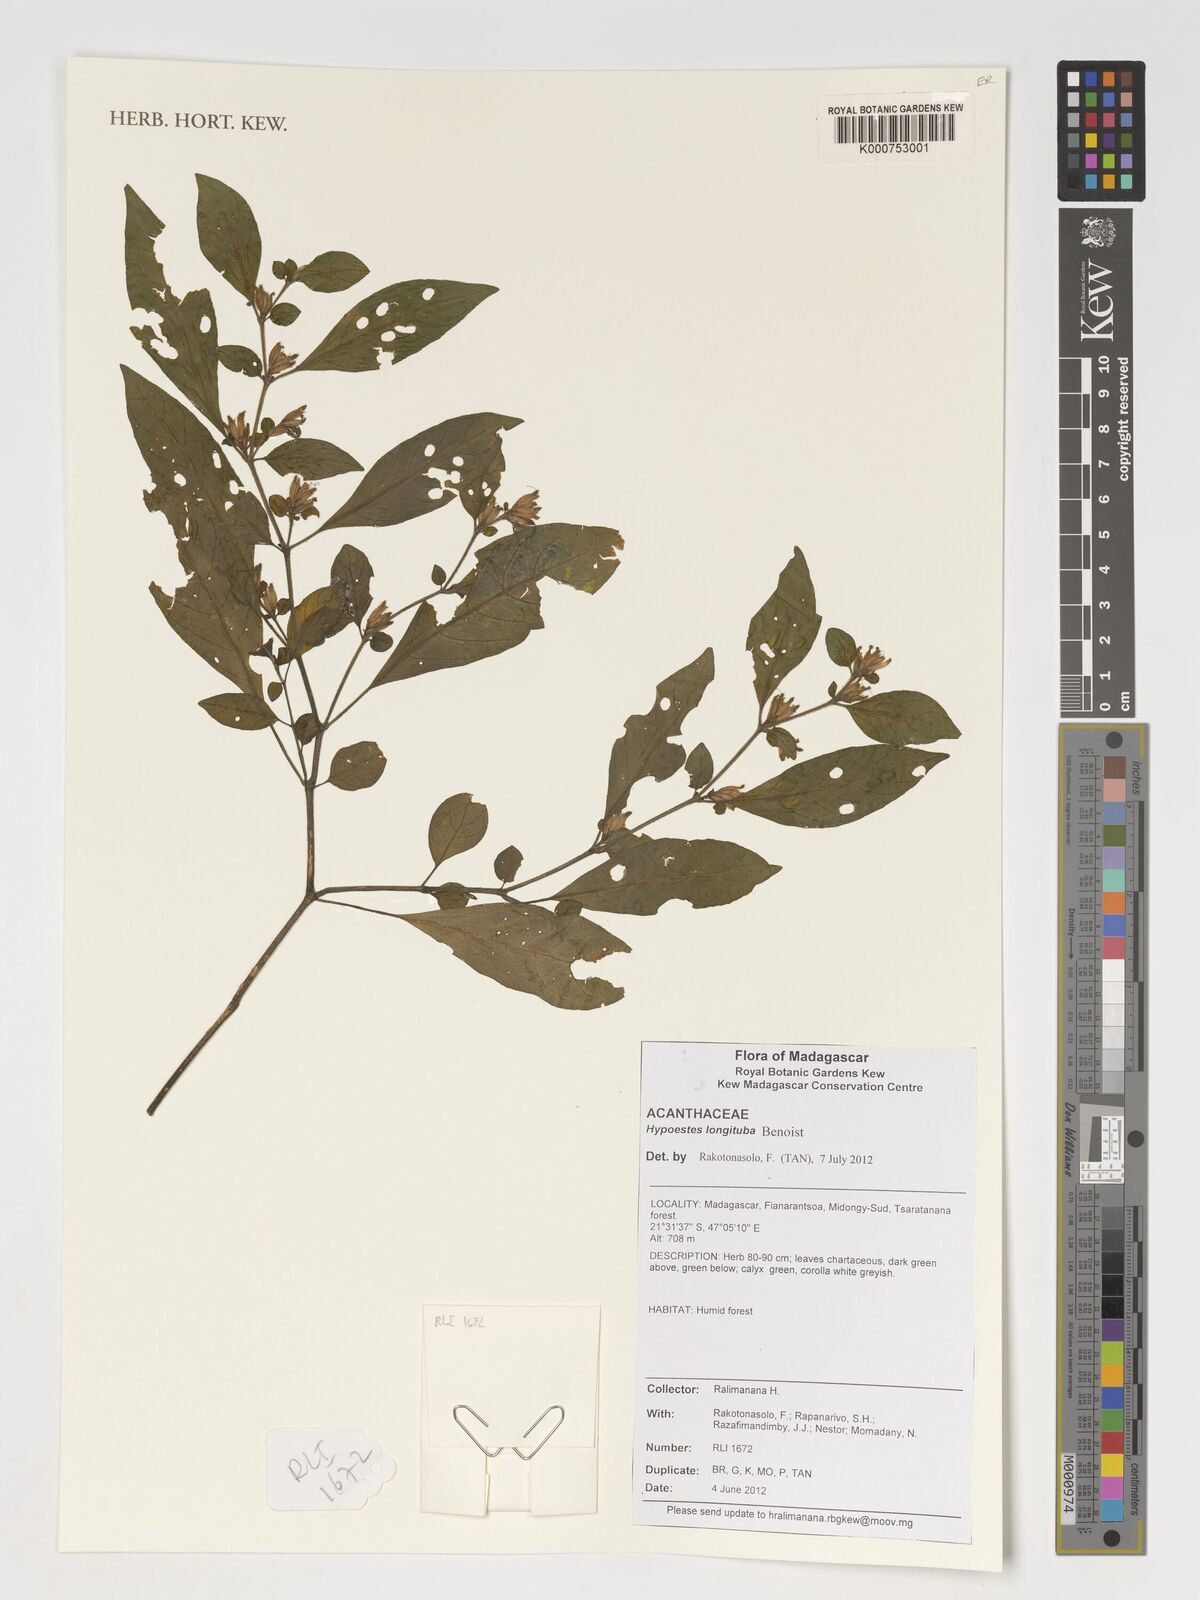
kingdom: Plantae
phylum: Tracheophyta
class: Magnoliopsida
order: Lamiales
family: Acanthaceae
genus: Hypoestes
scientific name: Hypoestes longituba
